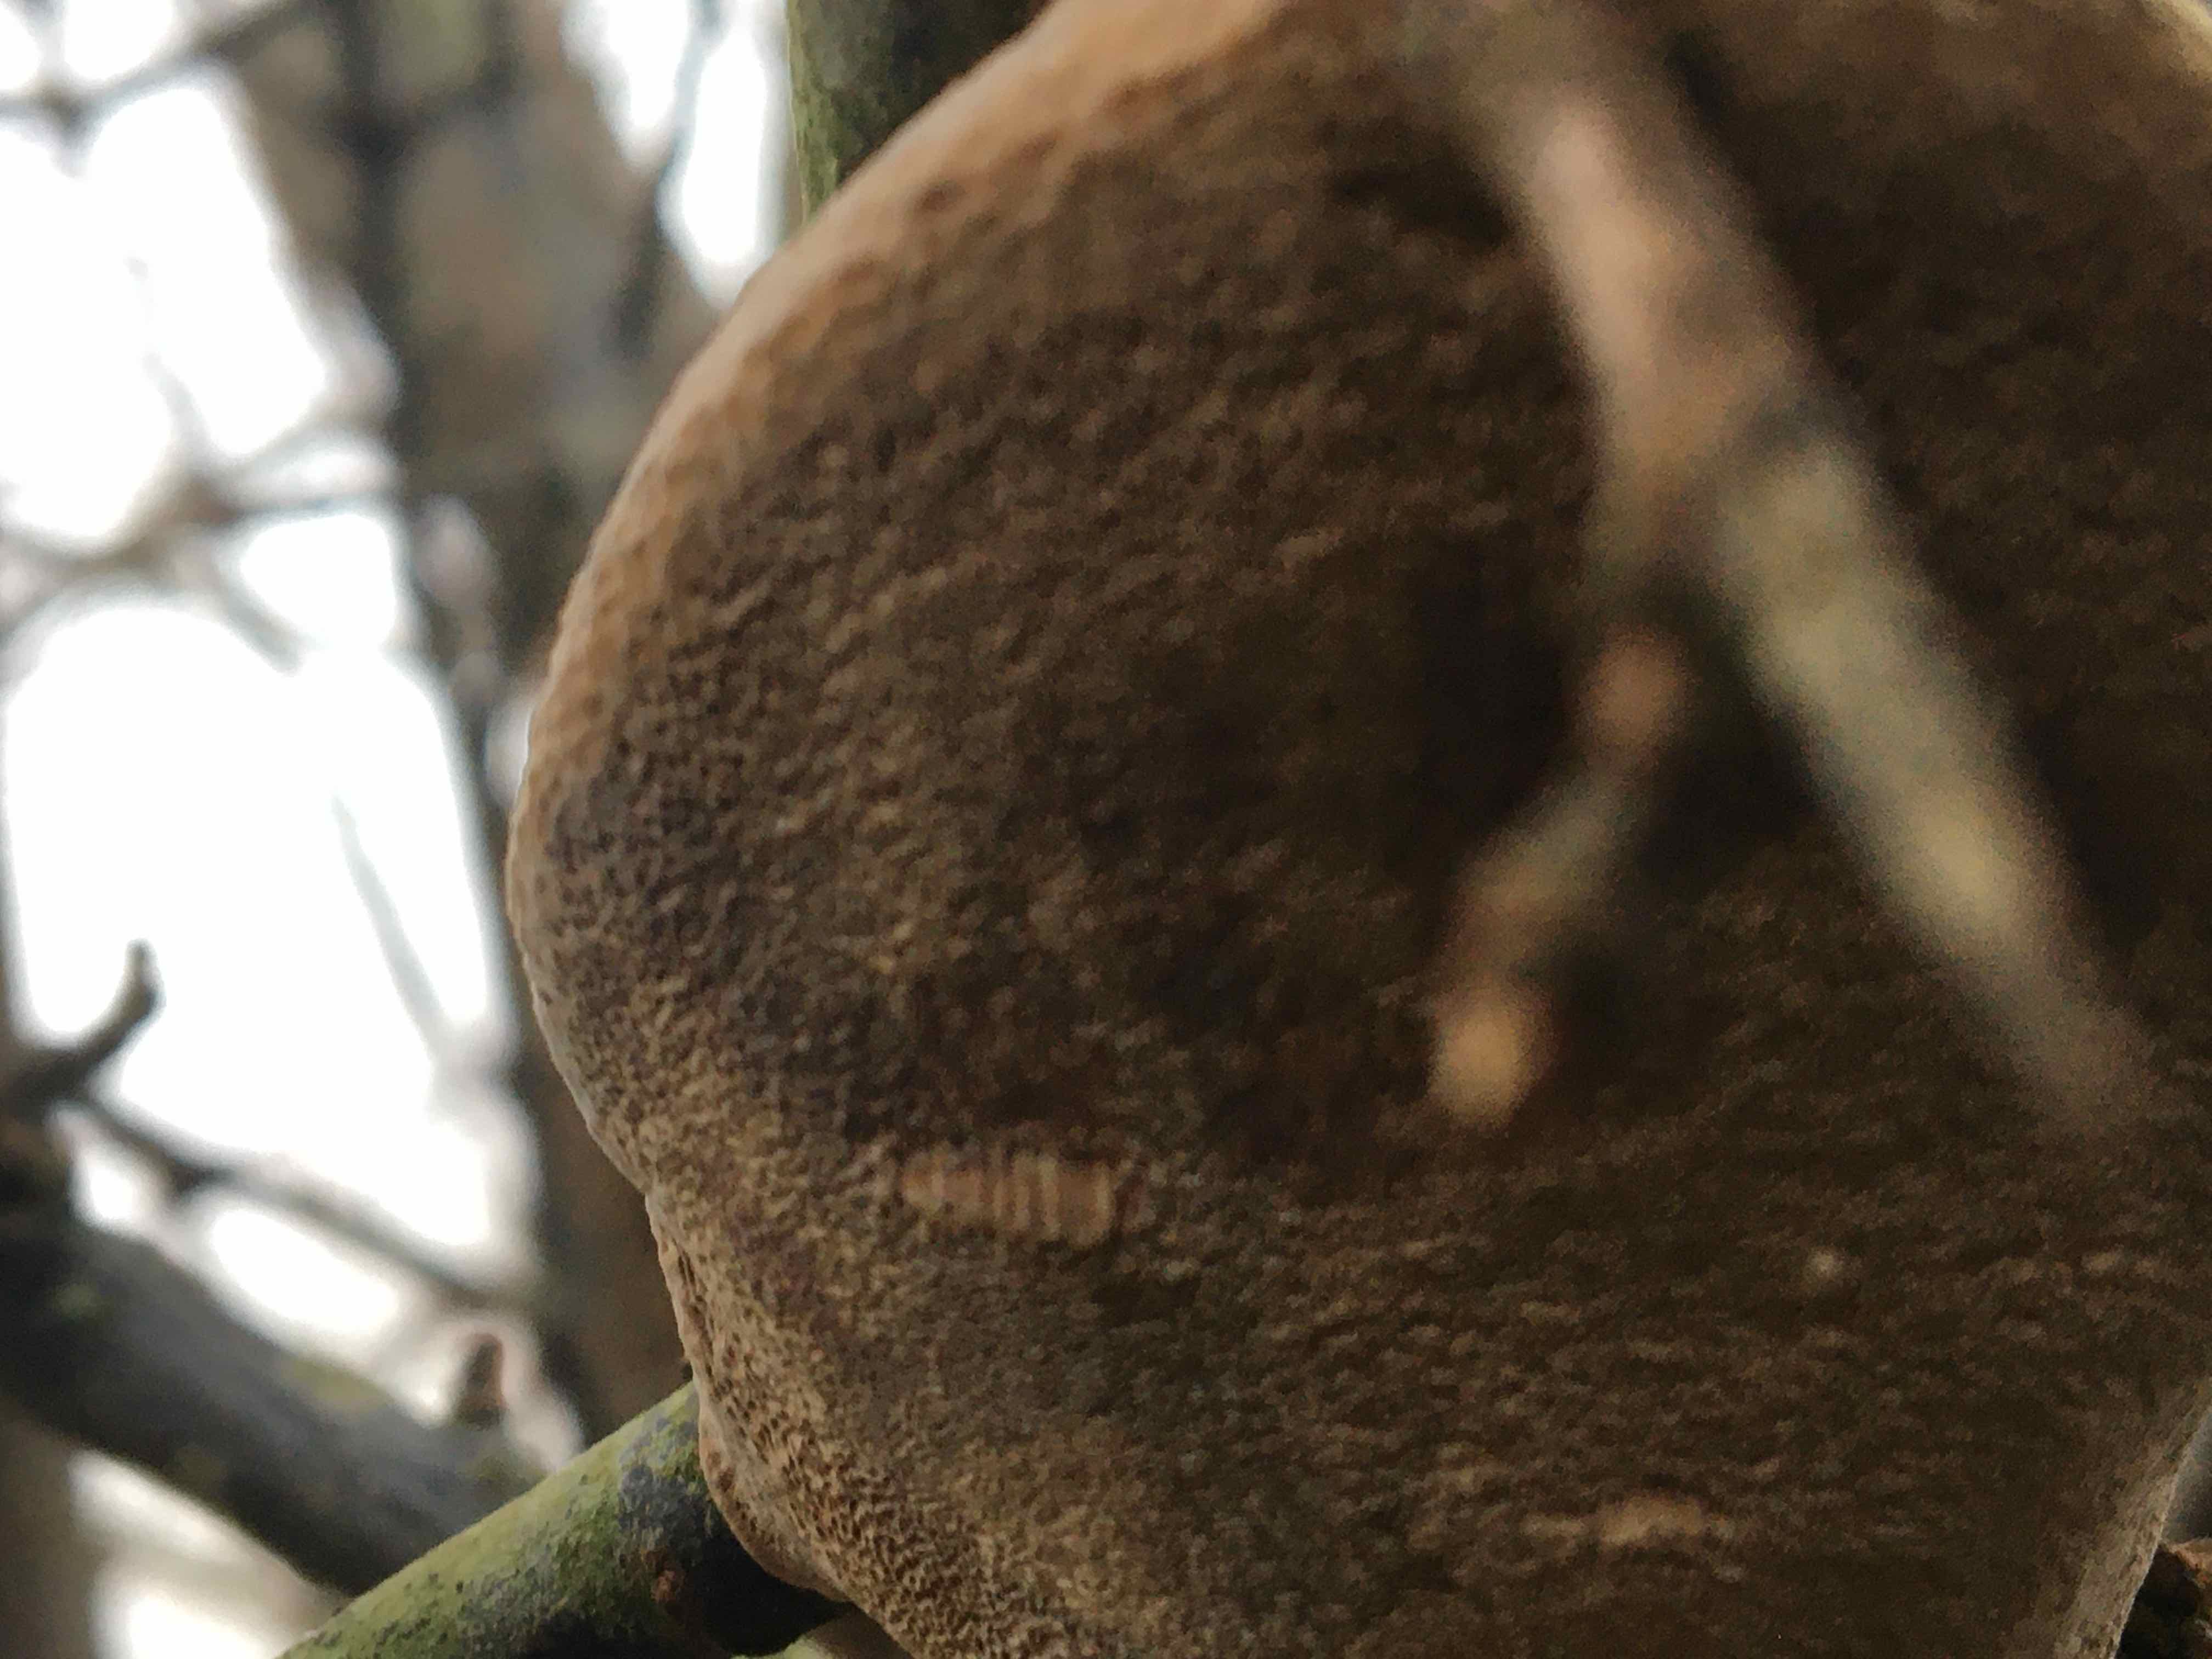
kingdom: Fungi
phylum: Basidiomycota
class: Agaricomycetes
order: Hymenochaetales
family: Hymenochaetaceae
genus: Phellinus
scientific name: Phellinus pomaceus
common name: blomme-ildporesvamp
